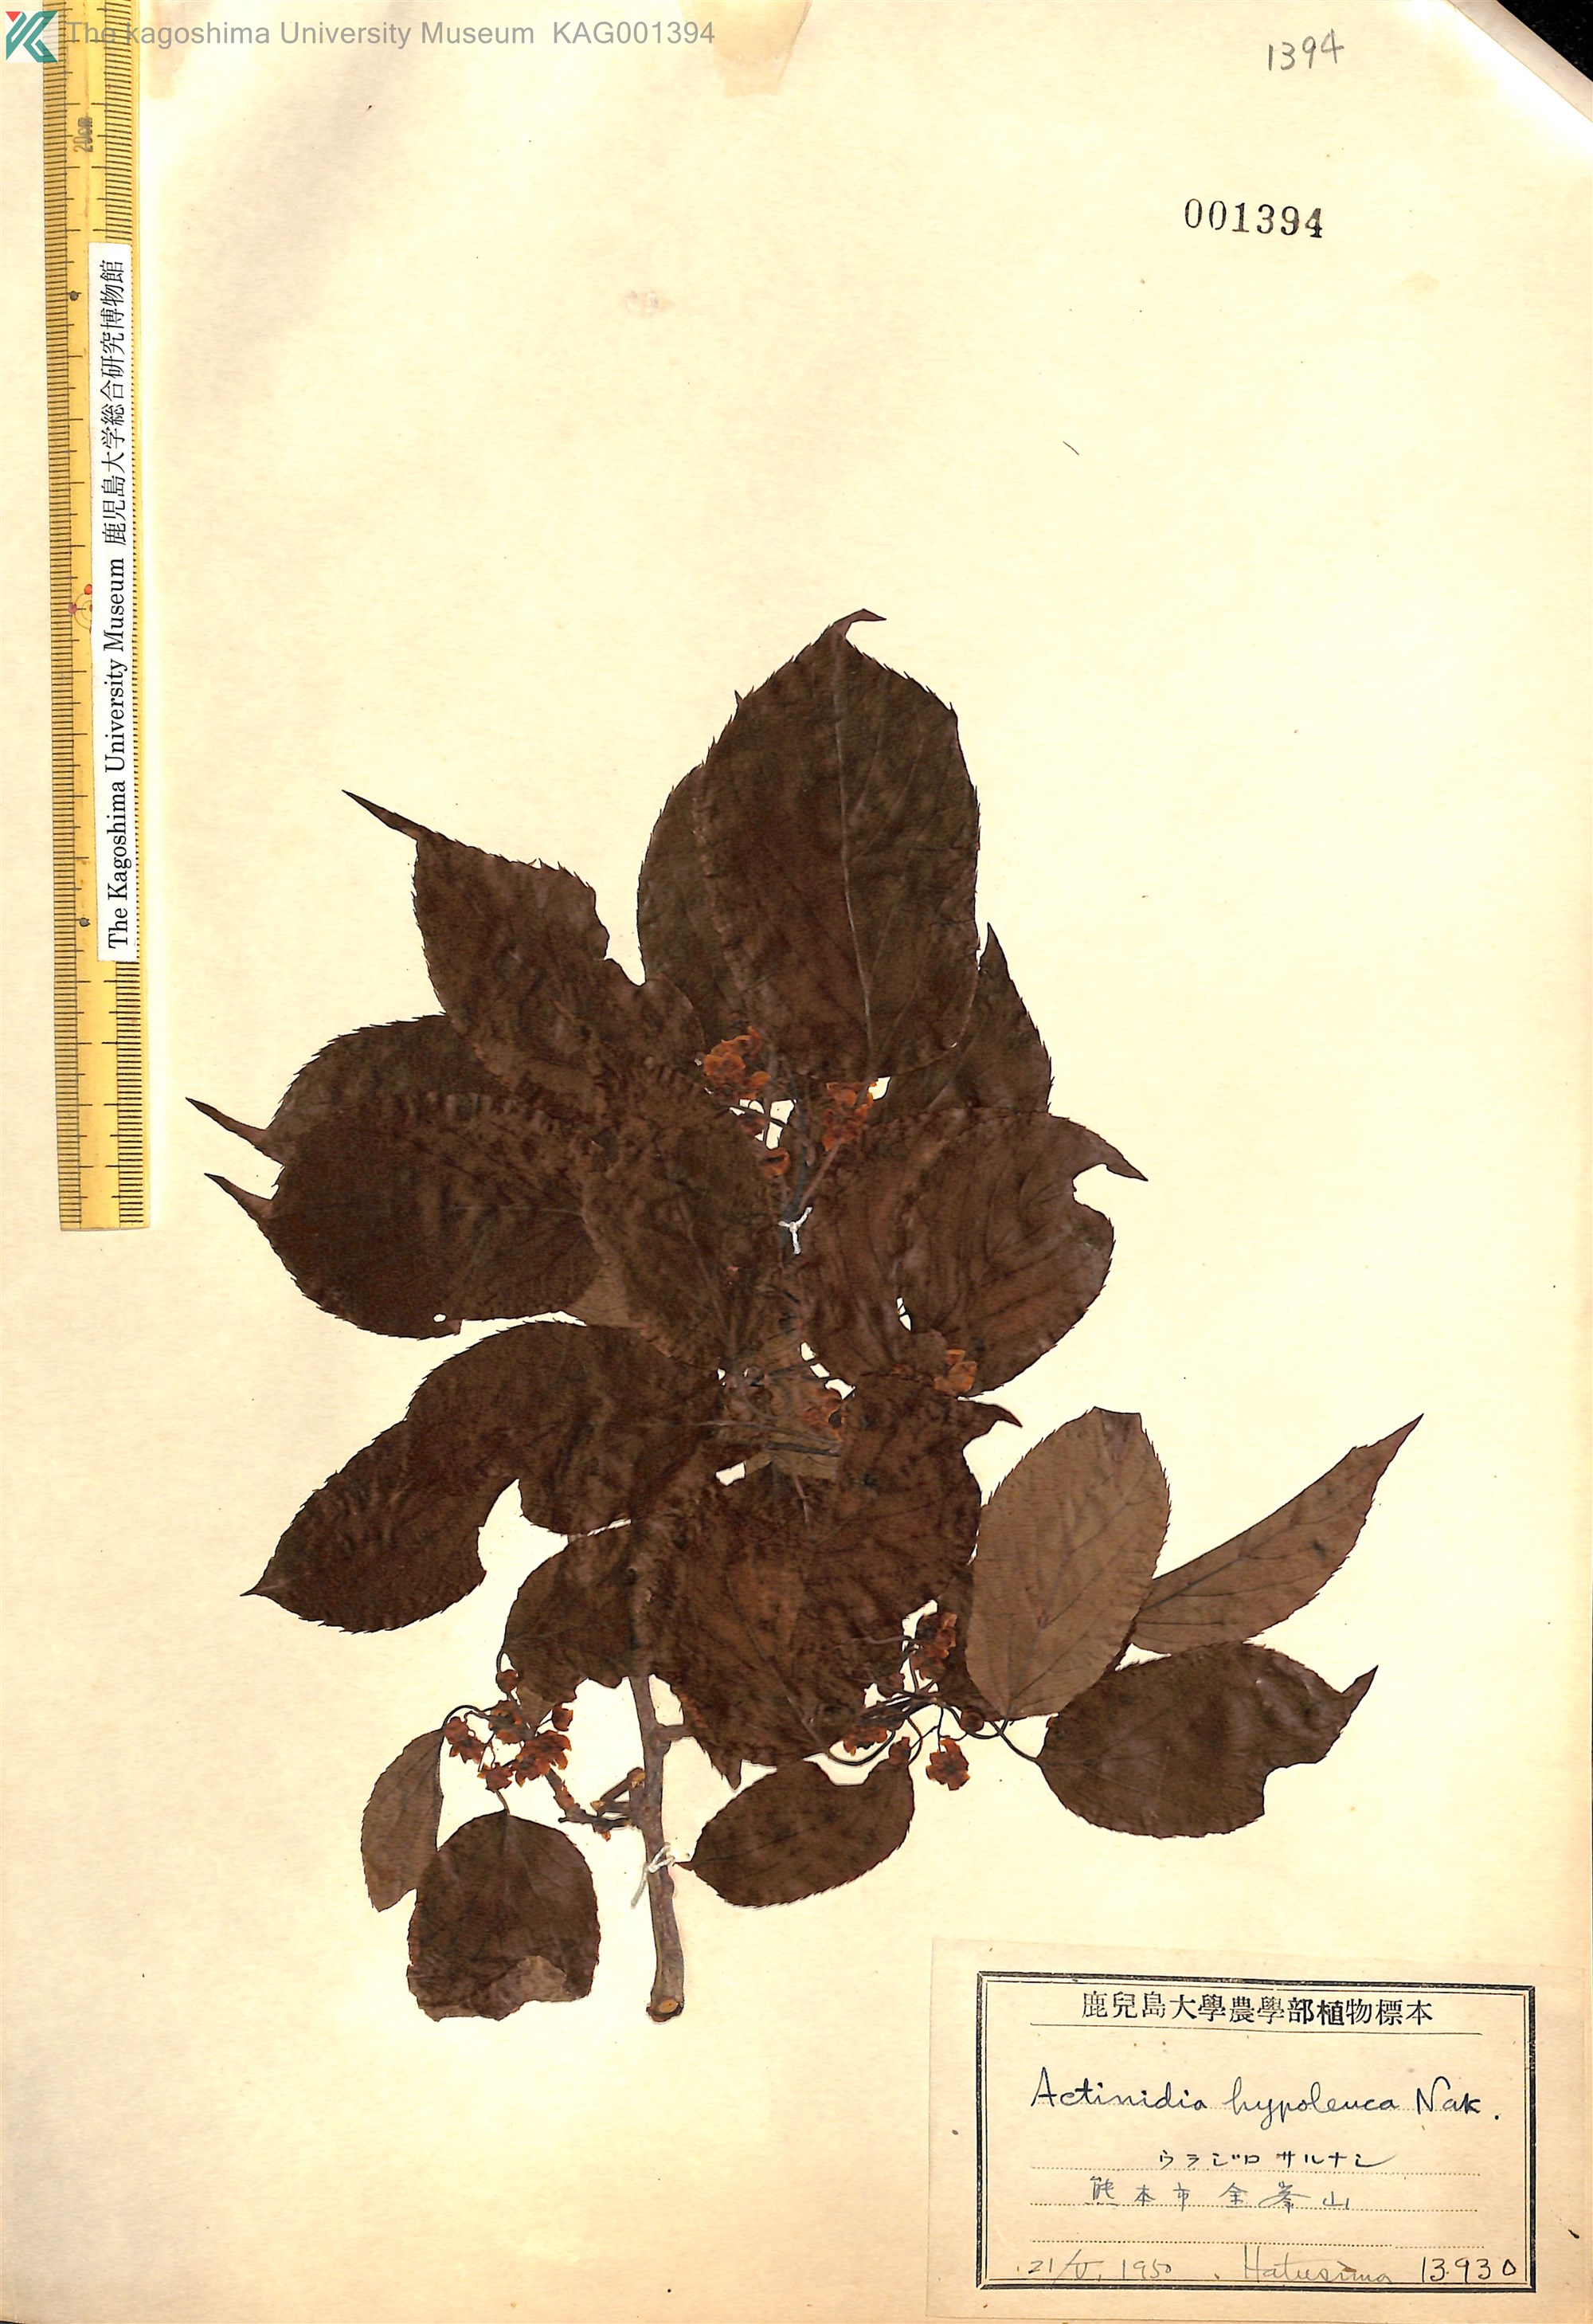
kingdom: Plantae
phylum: Tracheophyta
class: Magnoliopsida
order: Ericales
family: Actinidiaceae
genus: Actinidia
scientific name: Actinidia arguta
